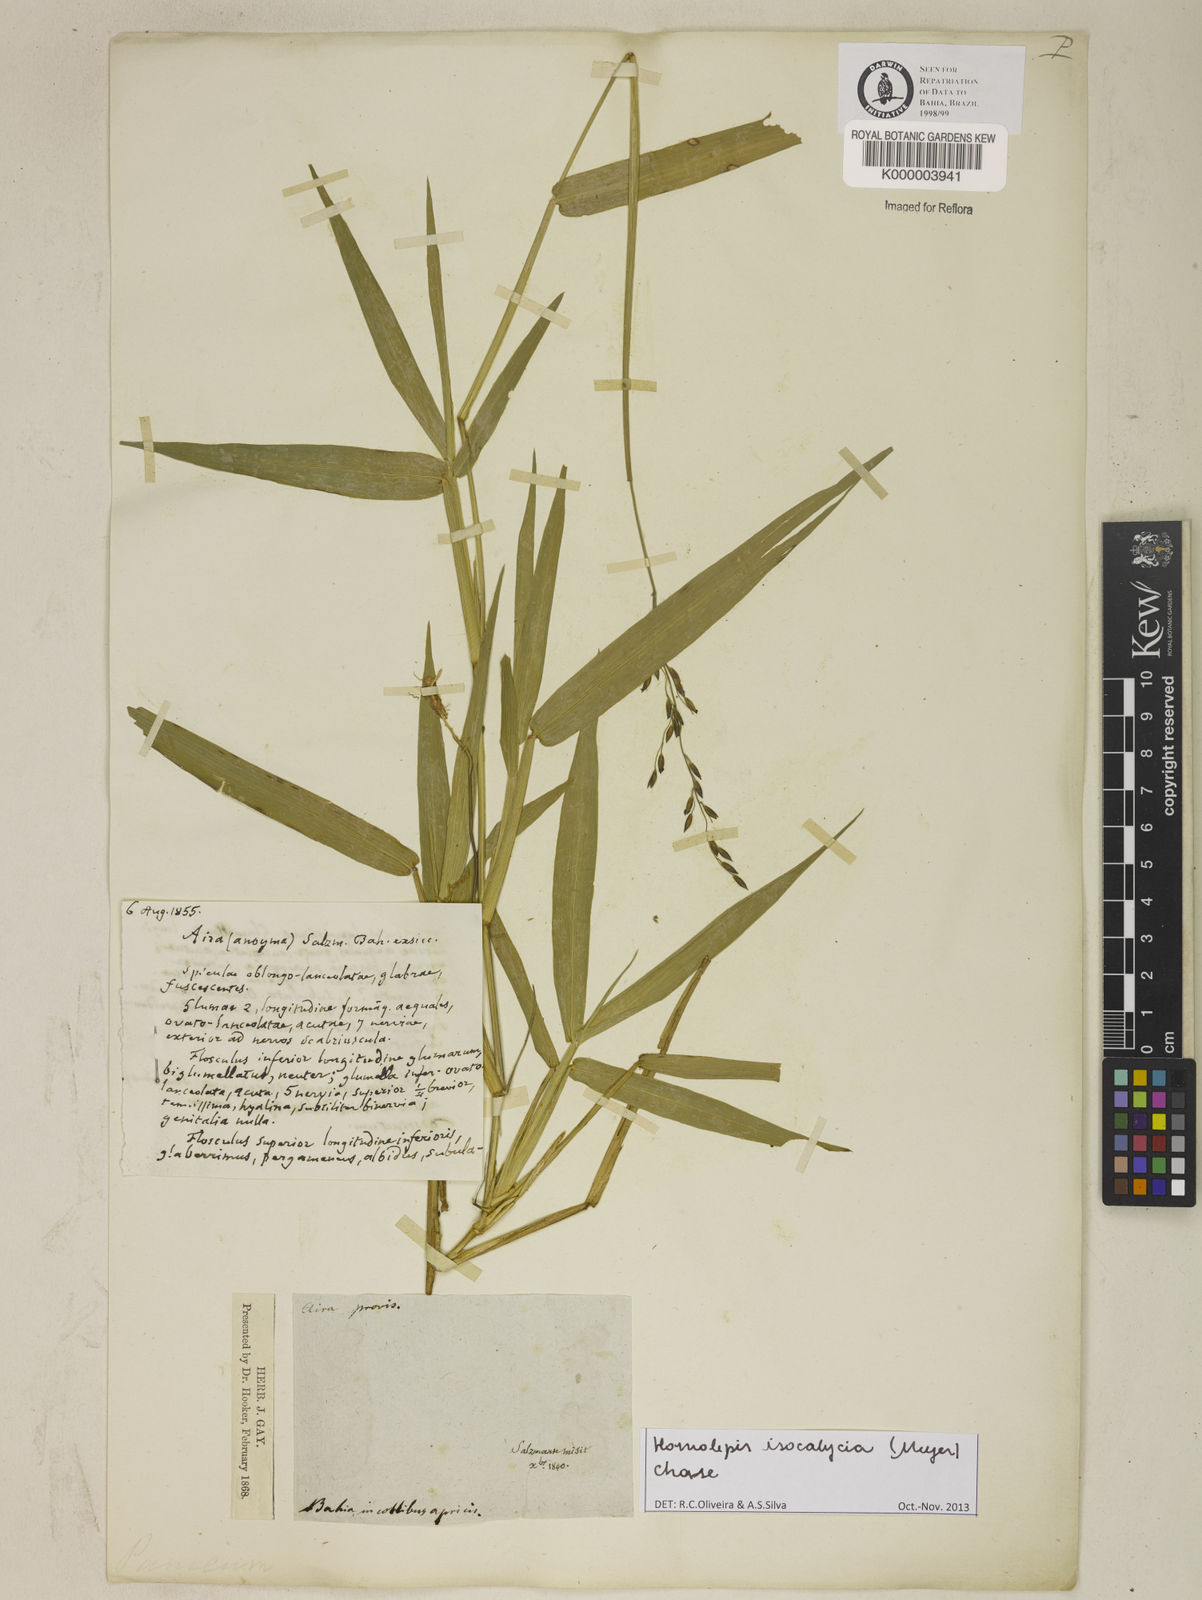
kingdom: Plantae
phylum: Tracheophyta
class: Liliopsida
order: Poales
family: Poaceae
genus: Homolepis
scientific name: Homolepis
